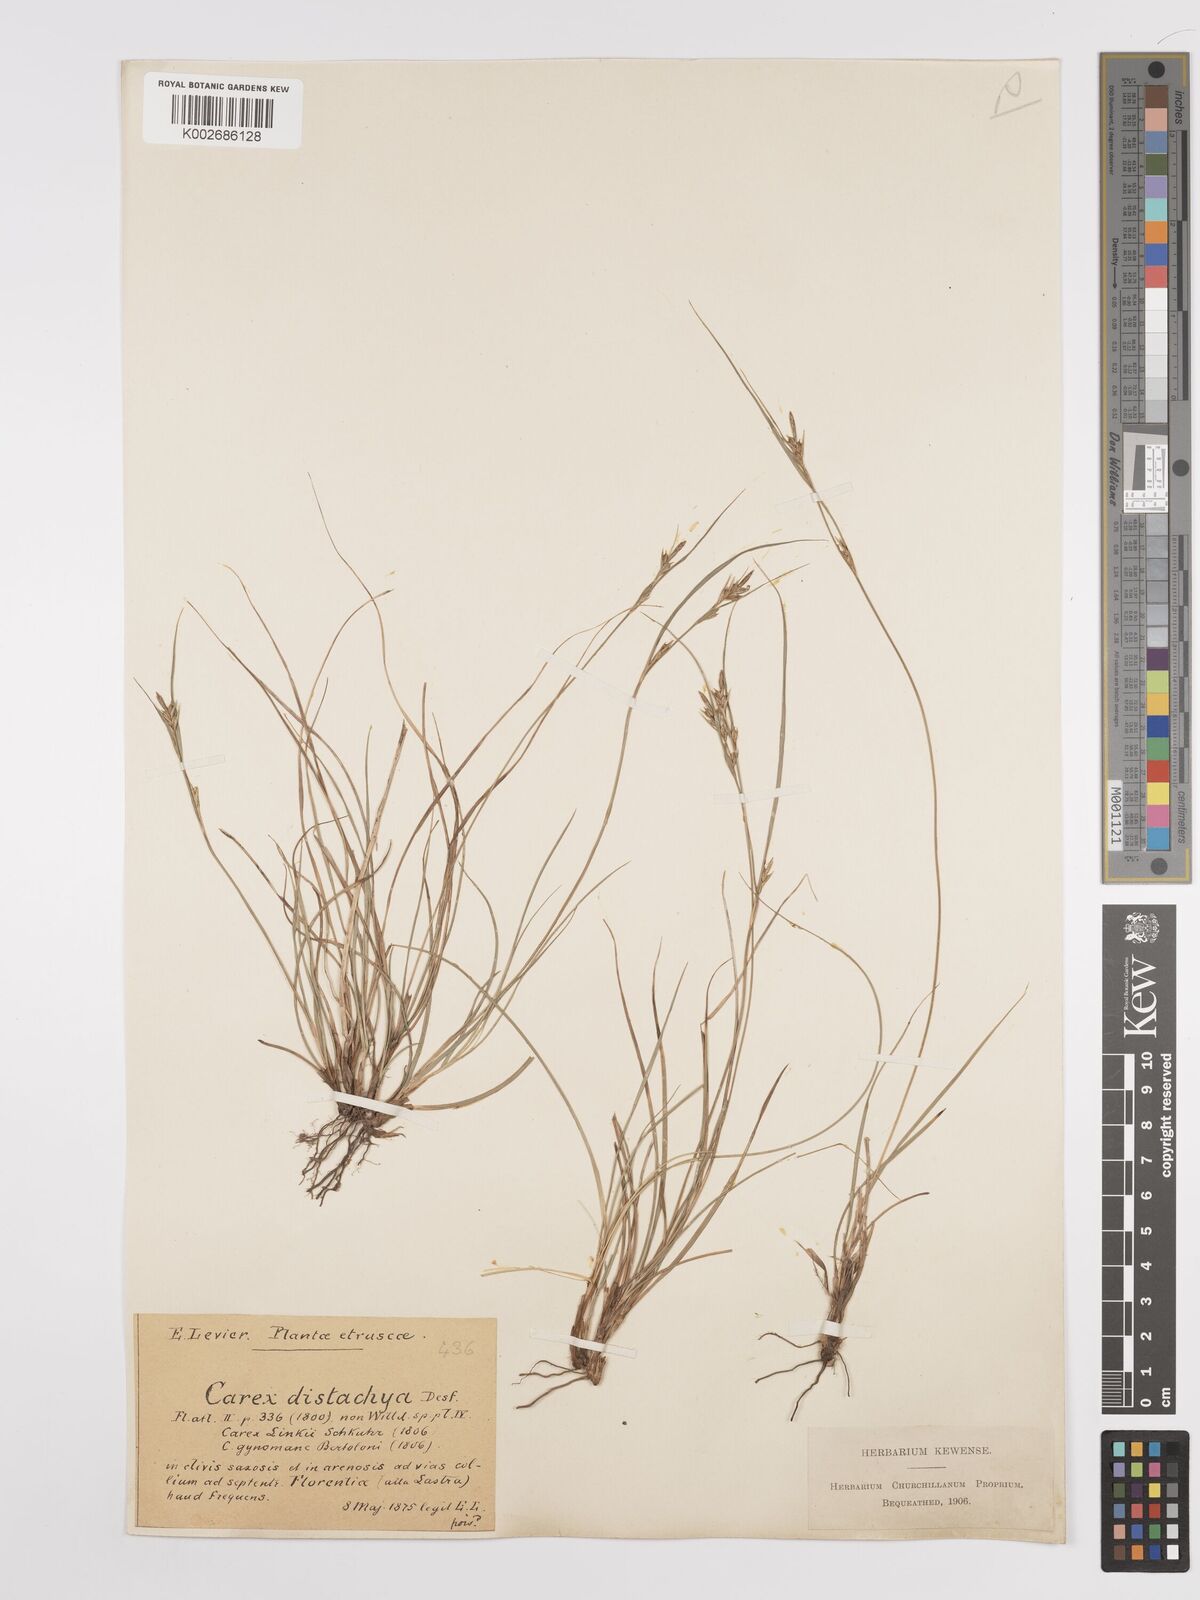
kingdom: Plantae
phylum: Tracheophyta
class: Liliopsida
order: Poales
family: Cyperaceae
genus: Carex
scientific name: Carex distachya
